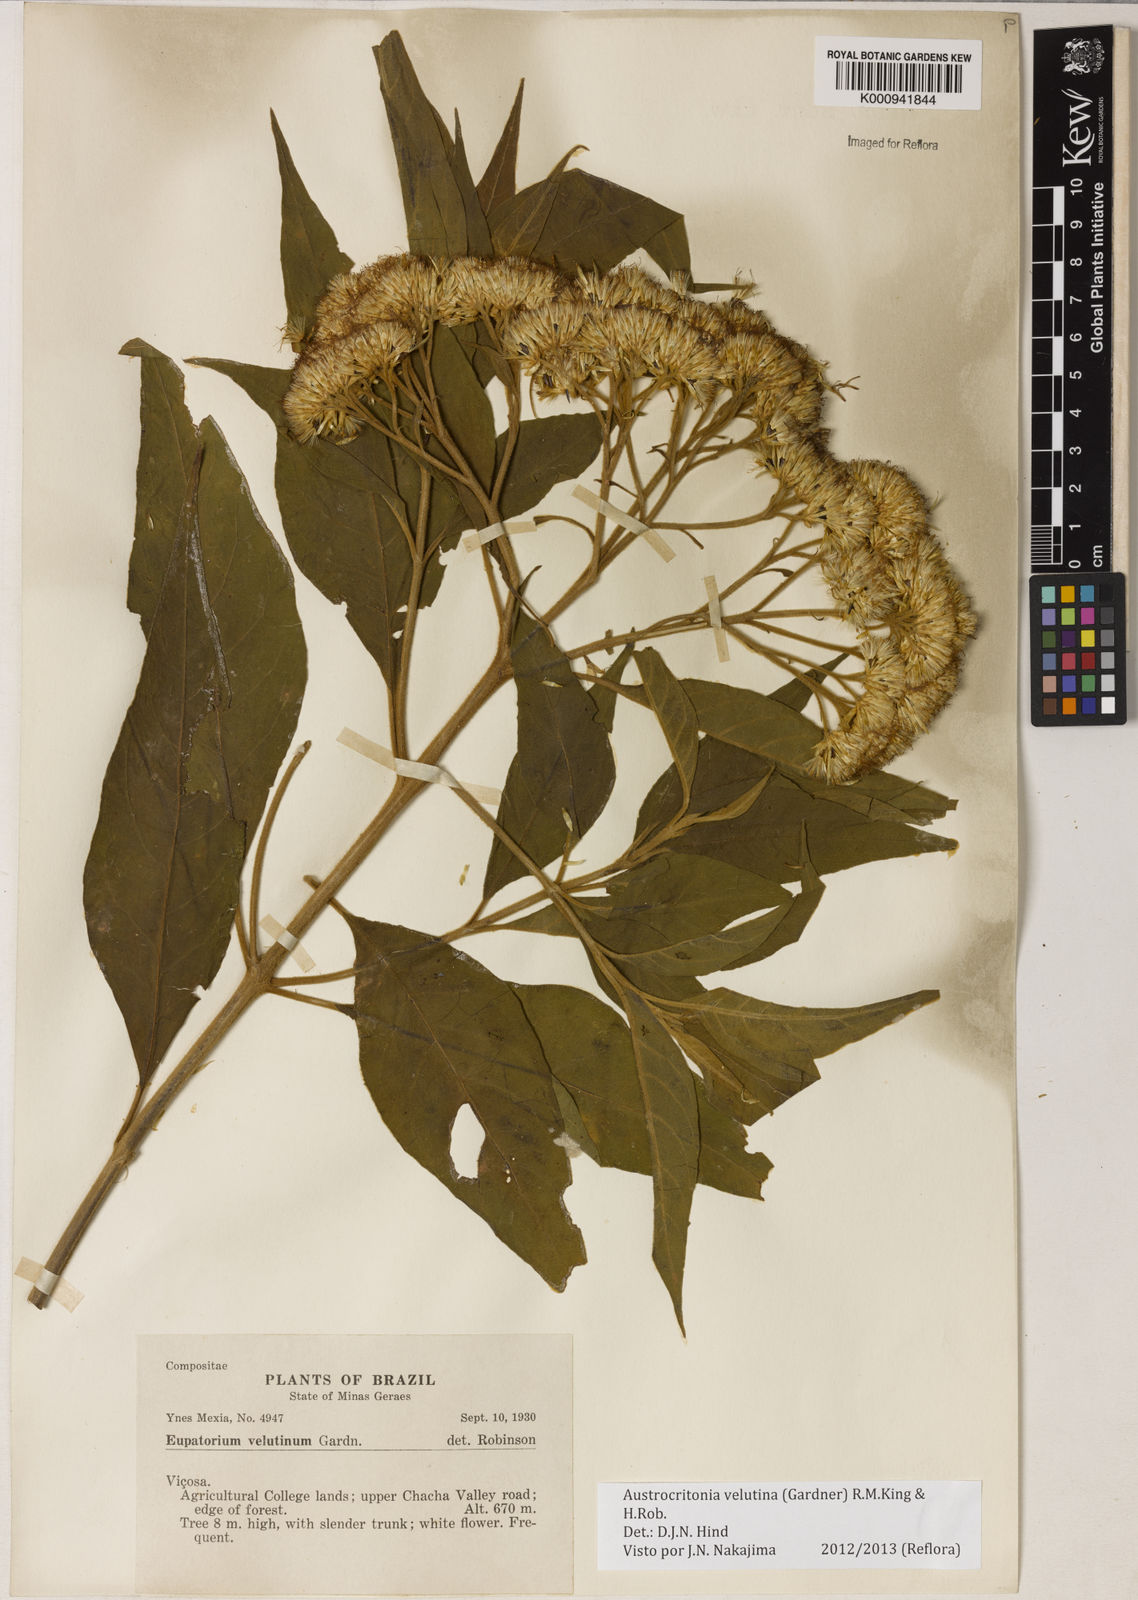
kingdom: Plantae
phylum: Tracheophyta
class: Magnoliopsida
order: Asterales
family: Asteraceae
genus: Austrocritonia
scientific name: Austrocritonia velutina
